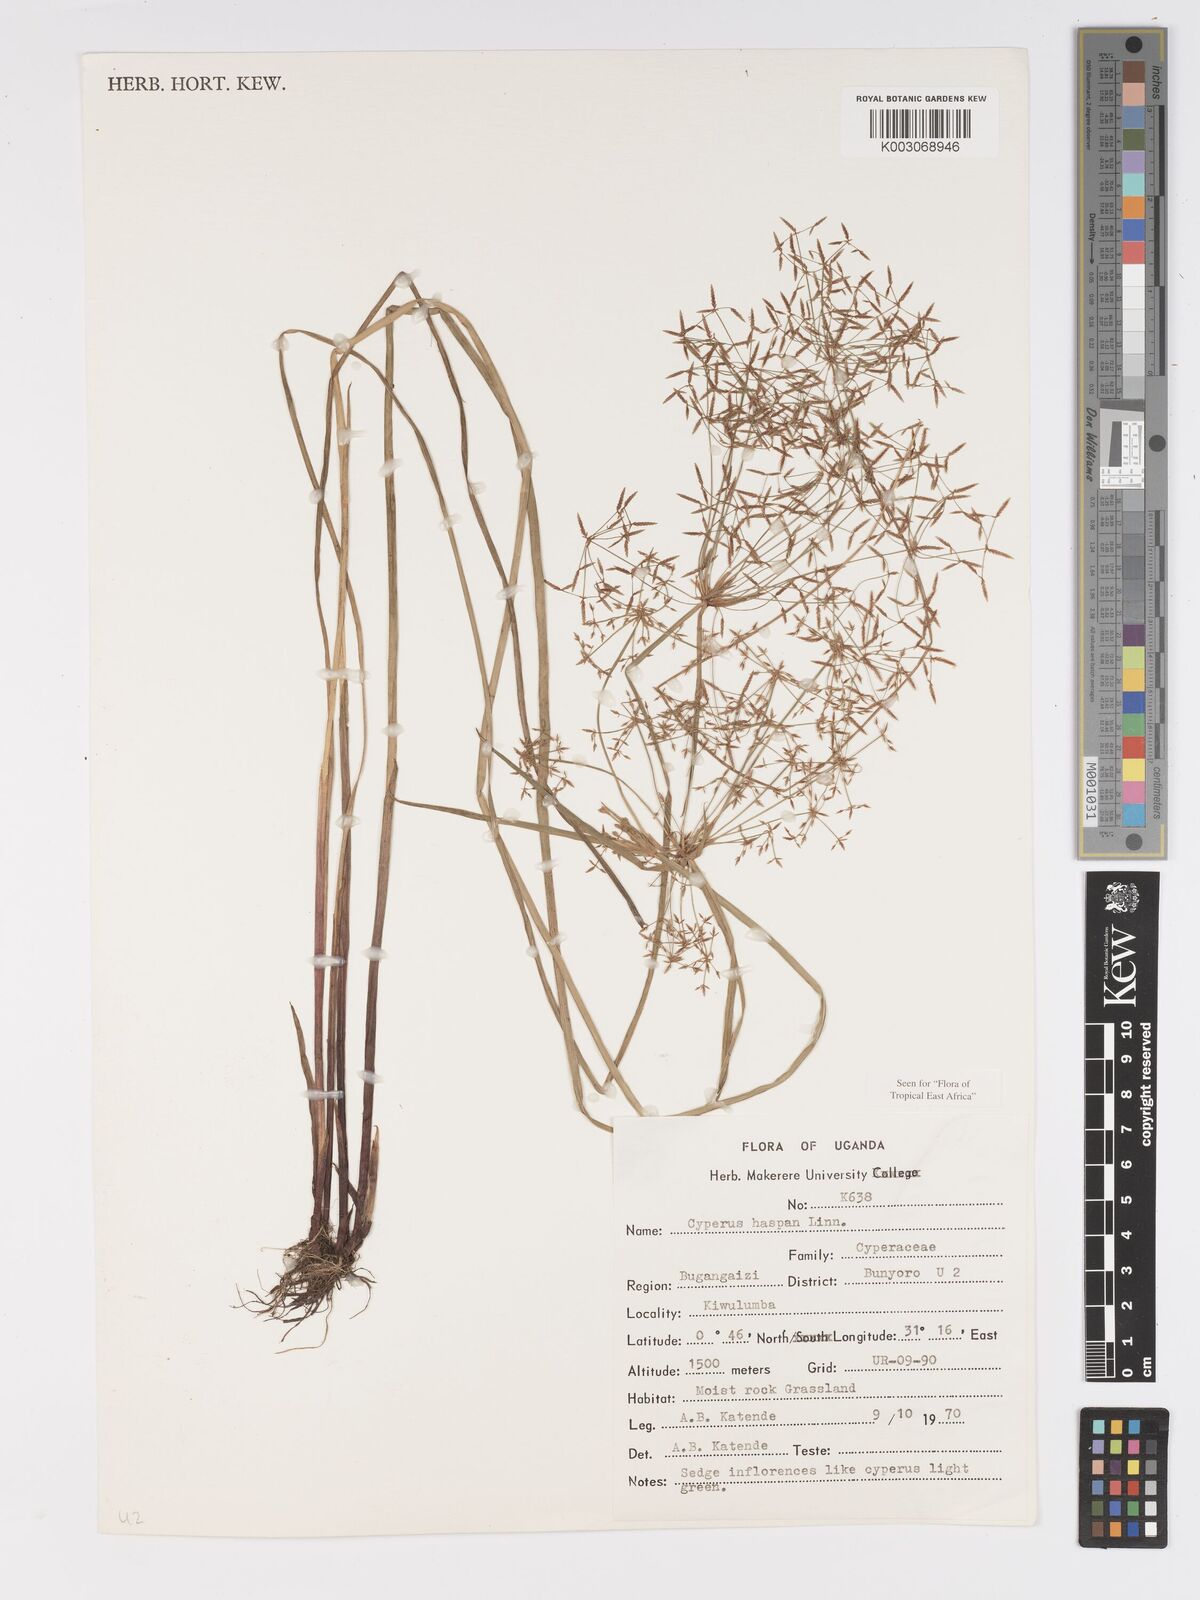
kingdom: Plantae
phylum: Tracheophyta
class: Liliopsida
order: Poales
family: Cyperaceae
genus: Cyperus
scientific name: Cyperus haspan
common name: Haspan flatsedge
